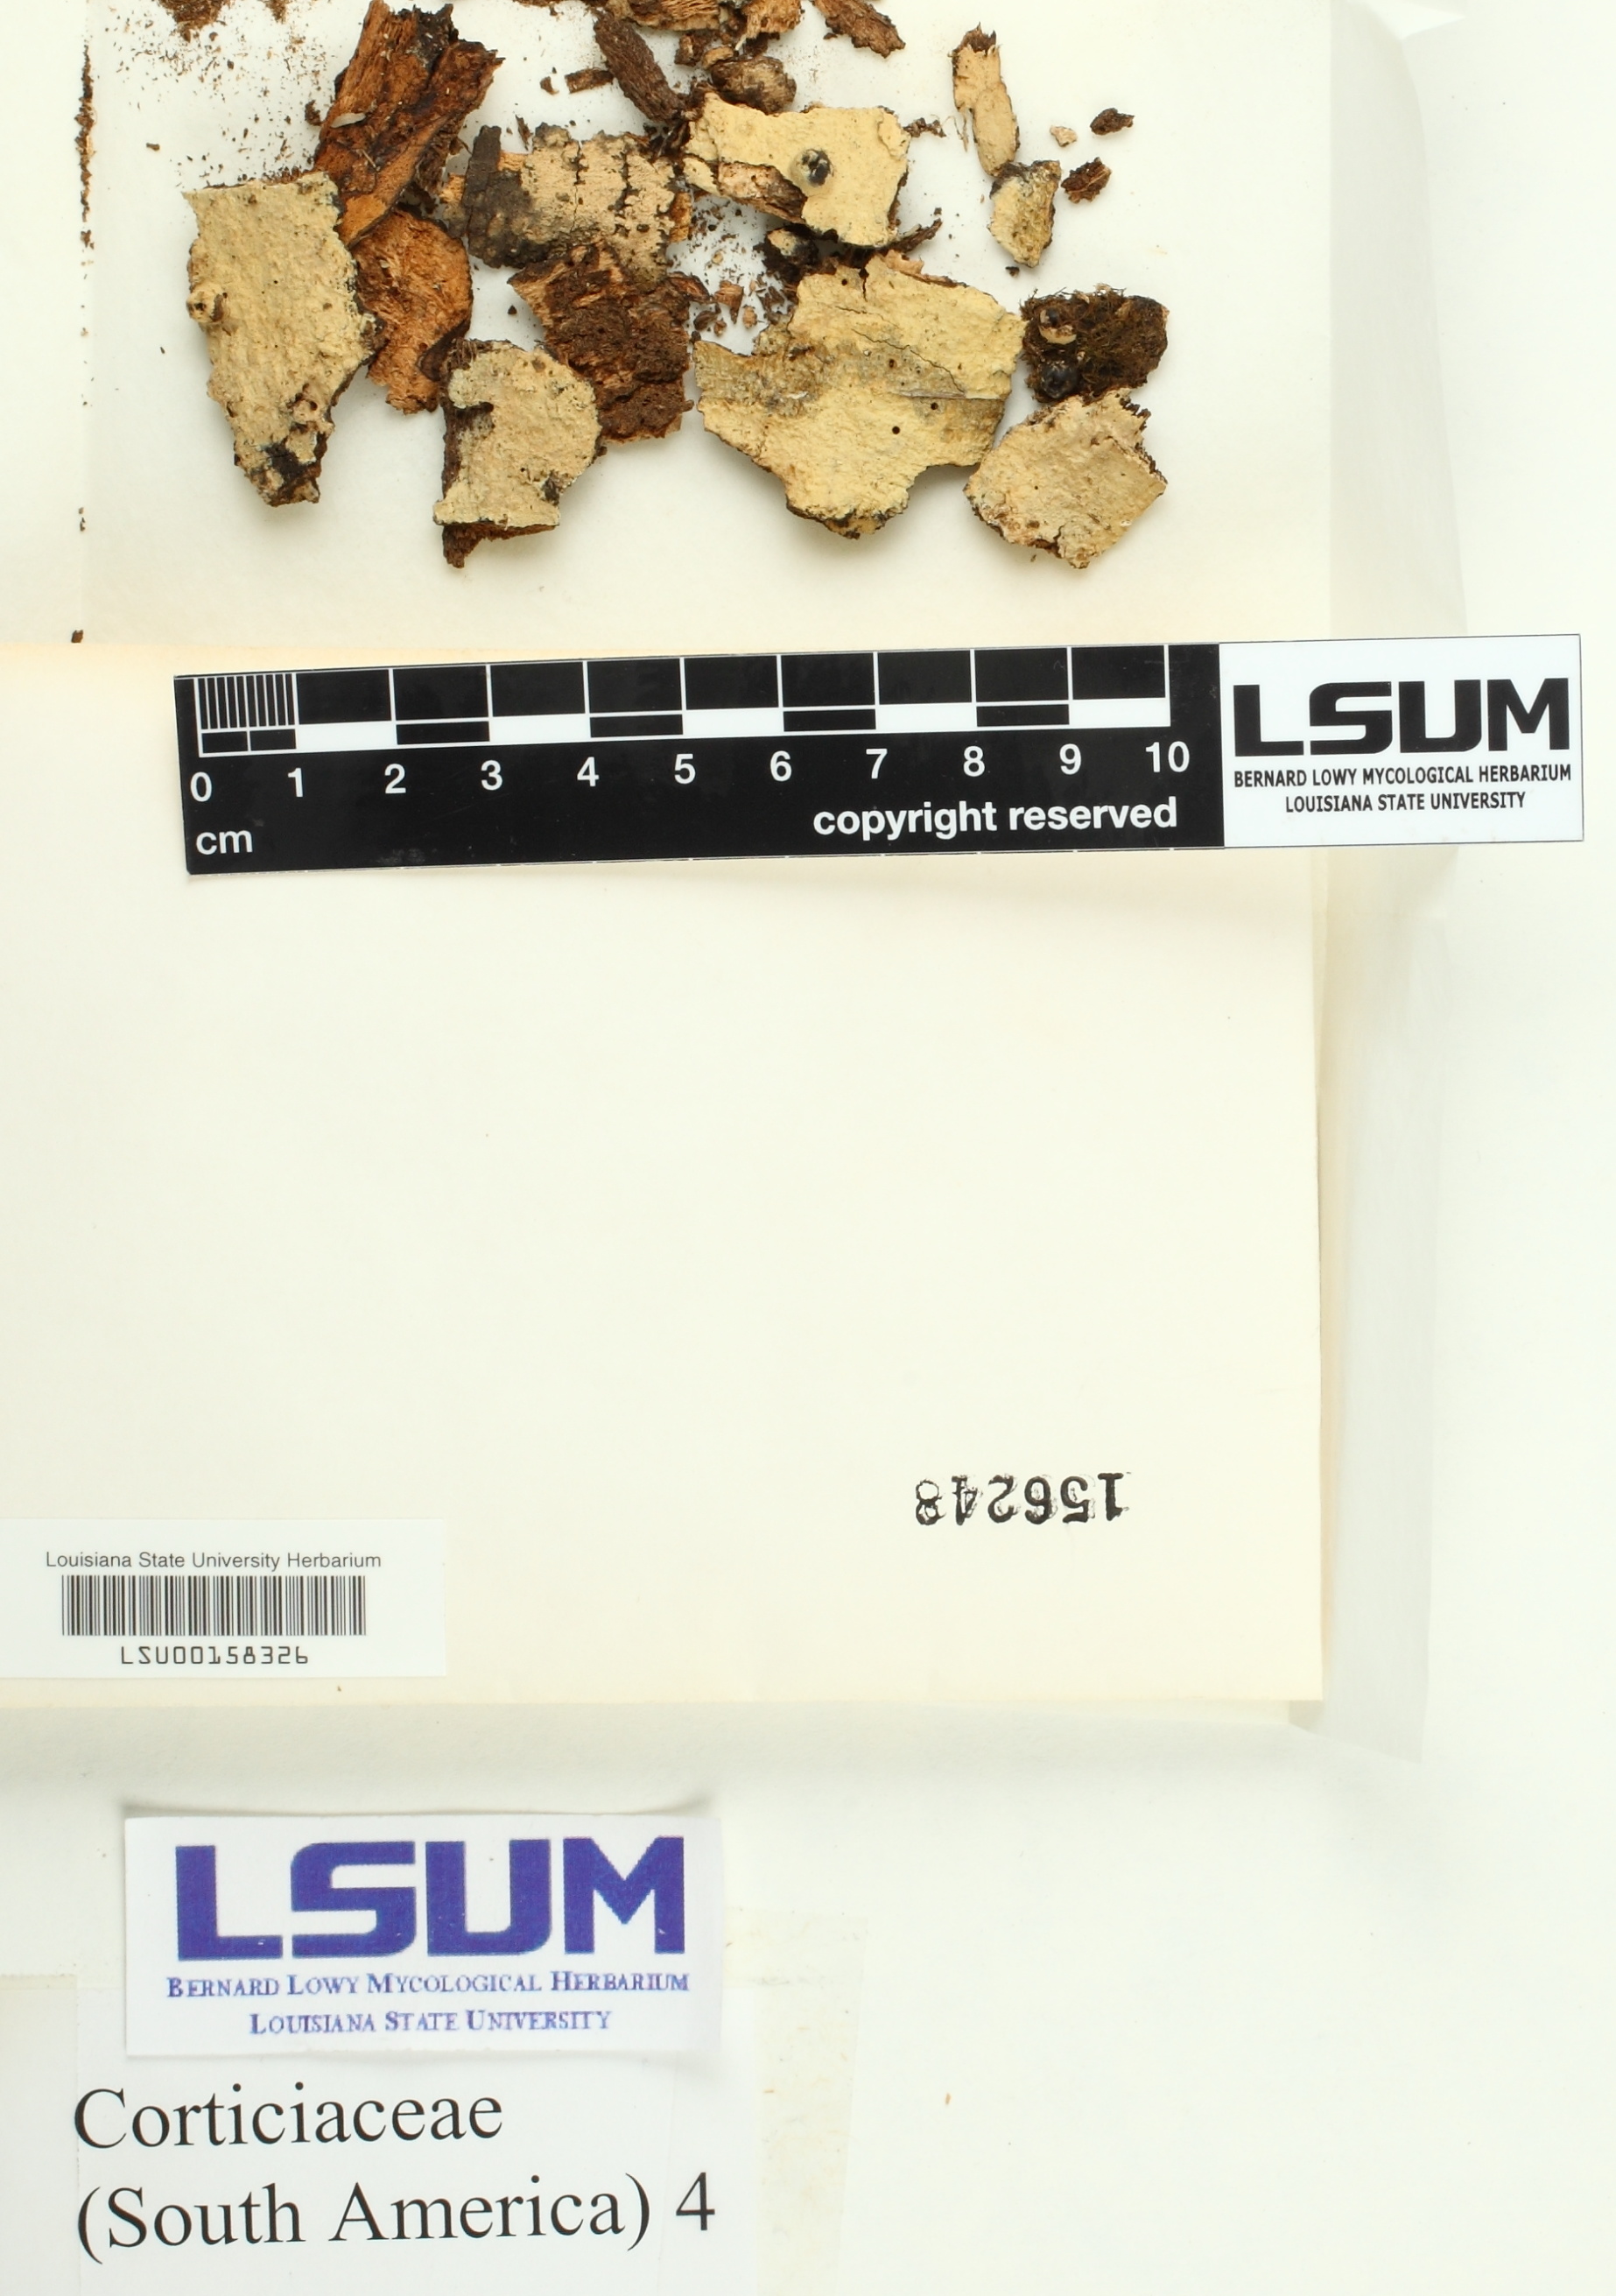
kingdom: Fungi
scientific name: Fungi
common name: Fungi
